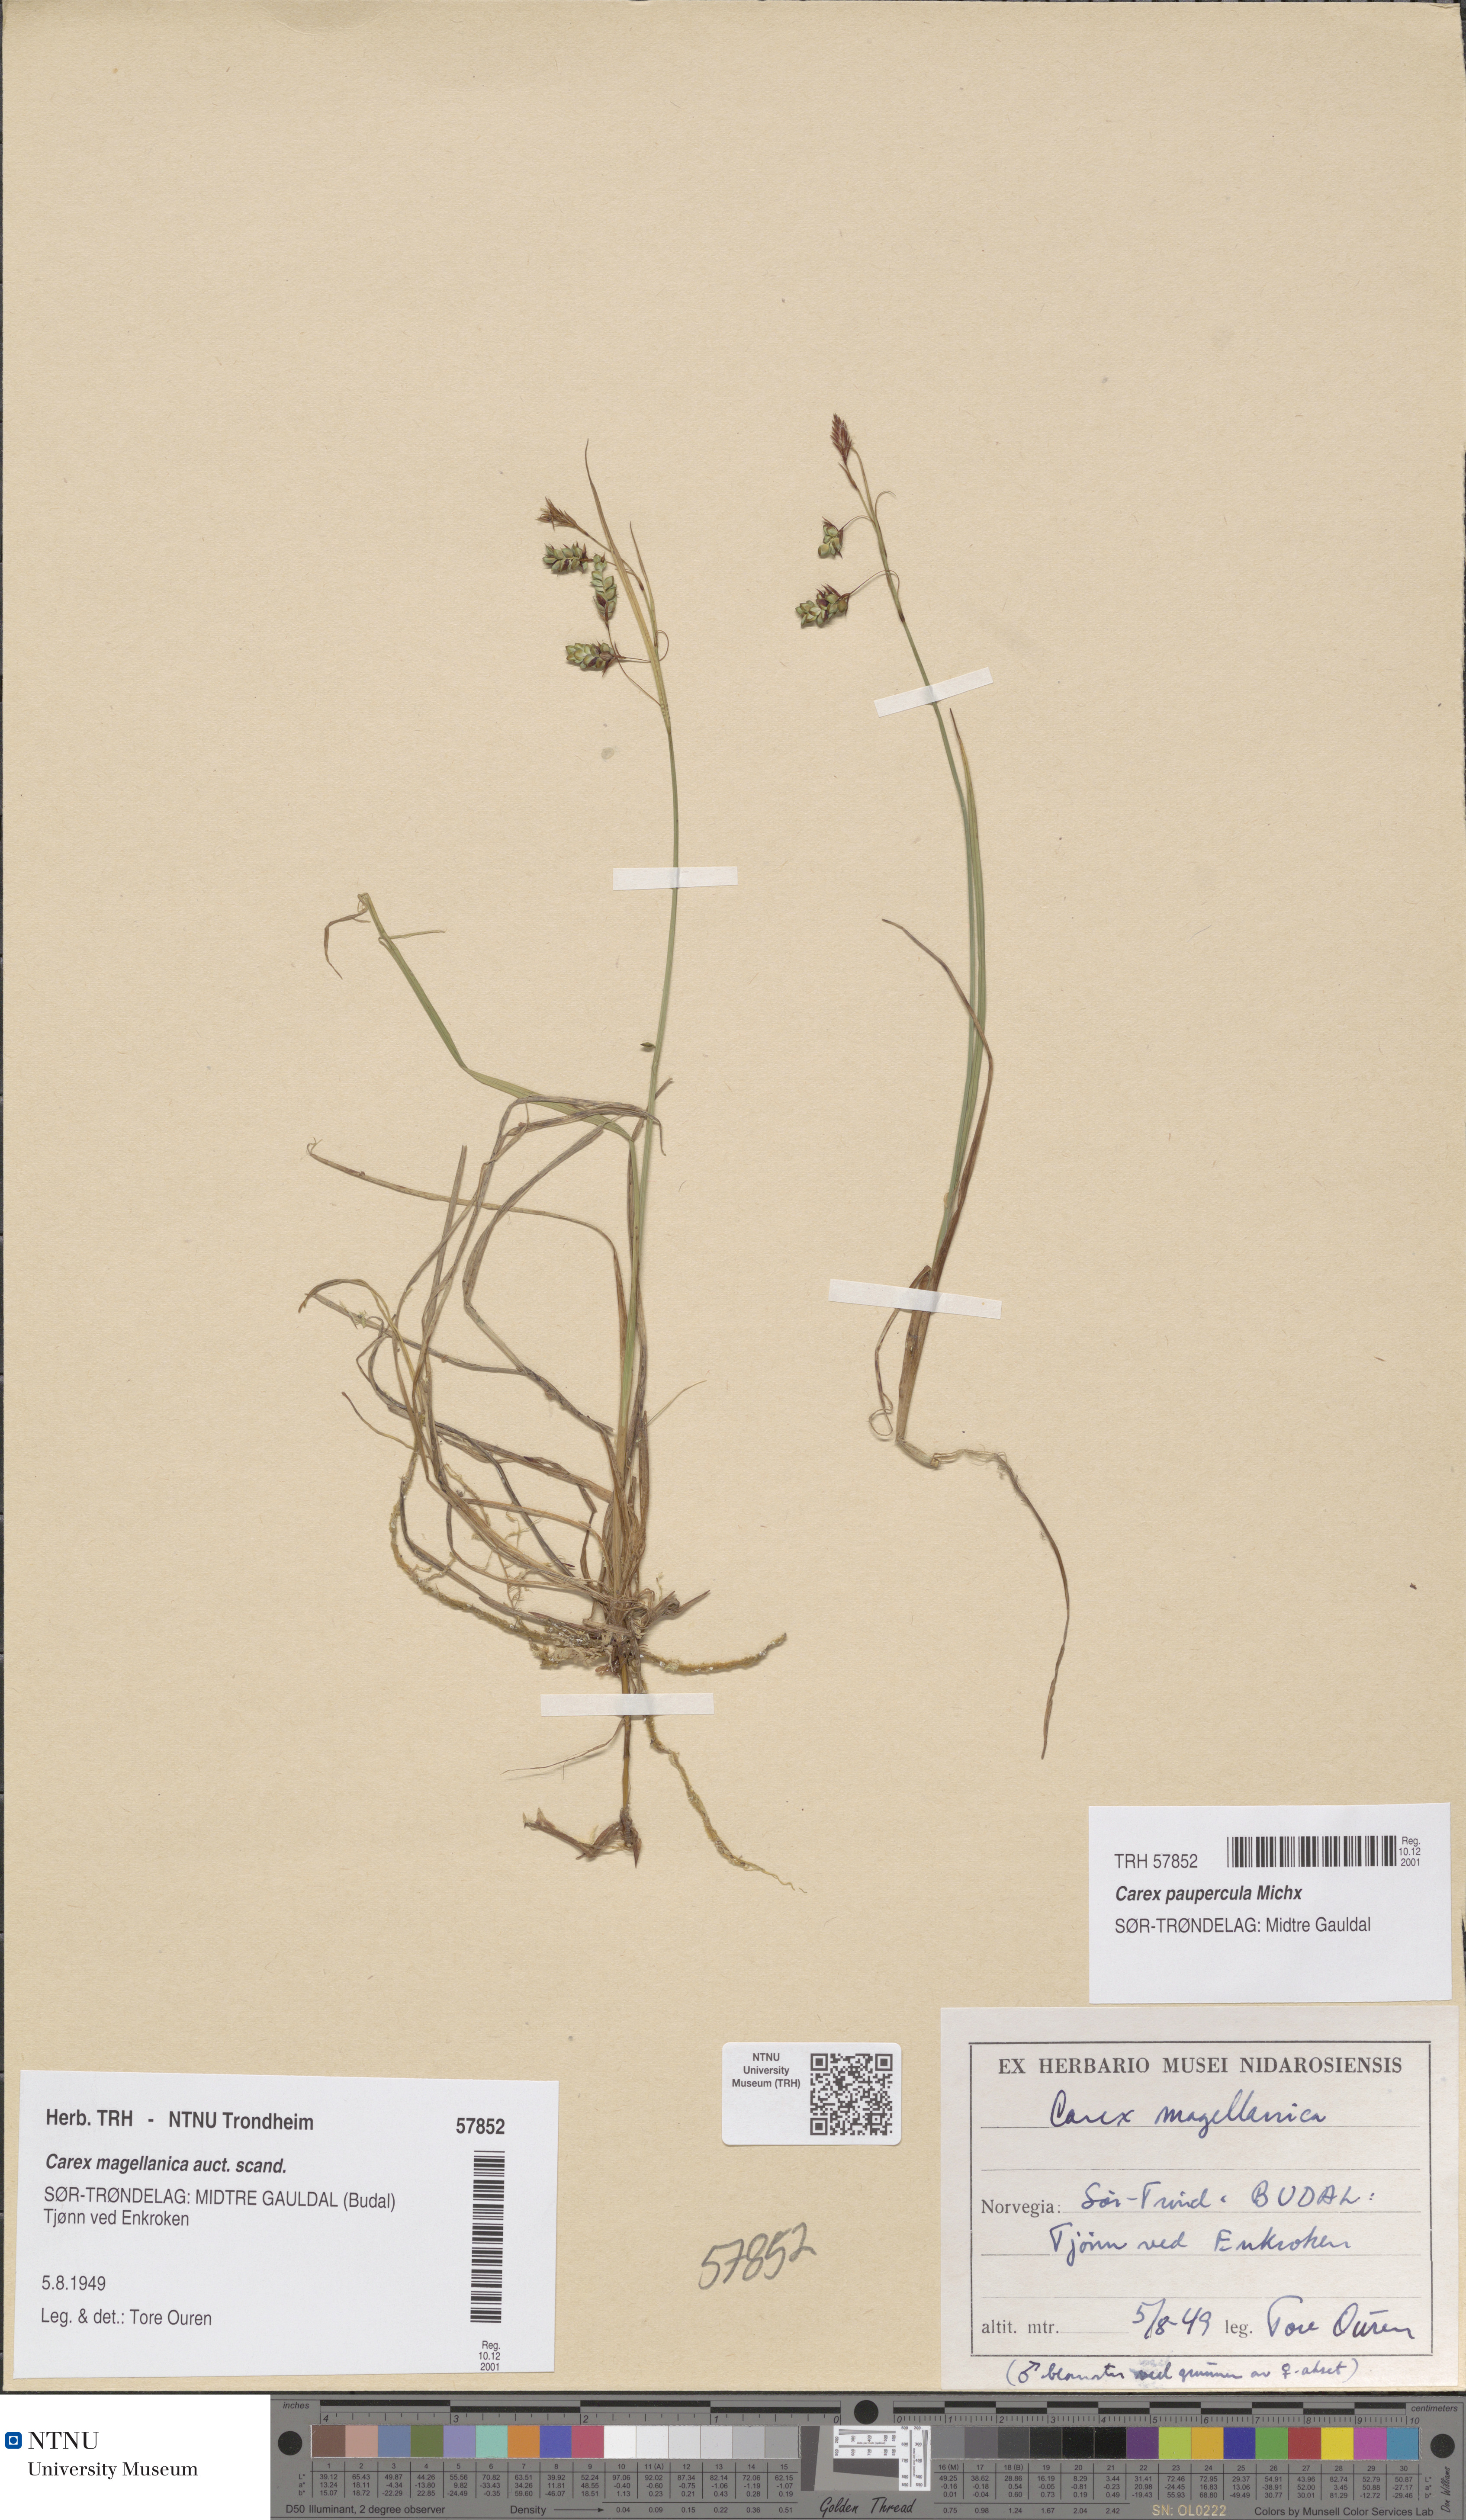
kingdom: Plantae
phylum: Tracheophyta
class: Liliopsida
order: Poales
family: Cyperaceae
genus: Carex
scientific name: Carex magellanica
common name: Bog sedge
